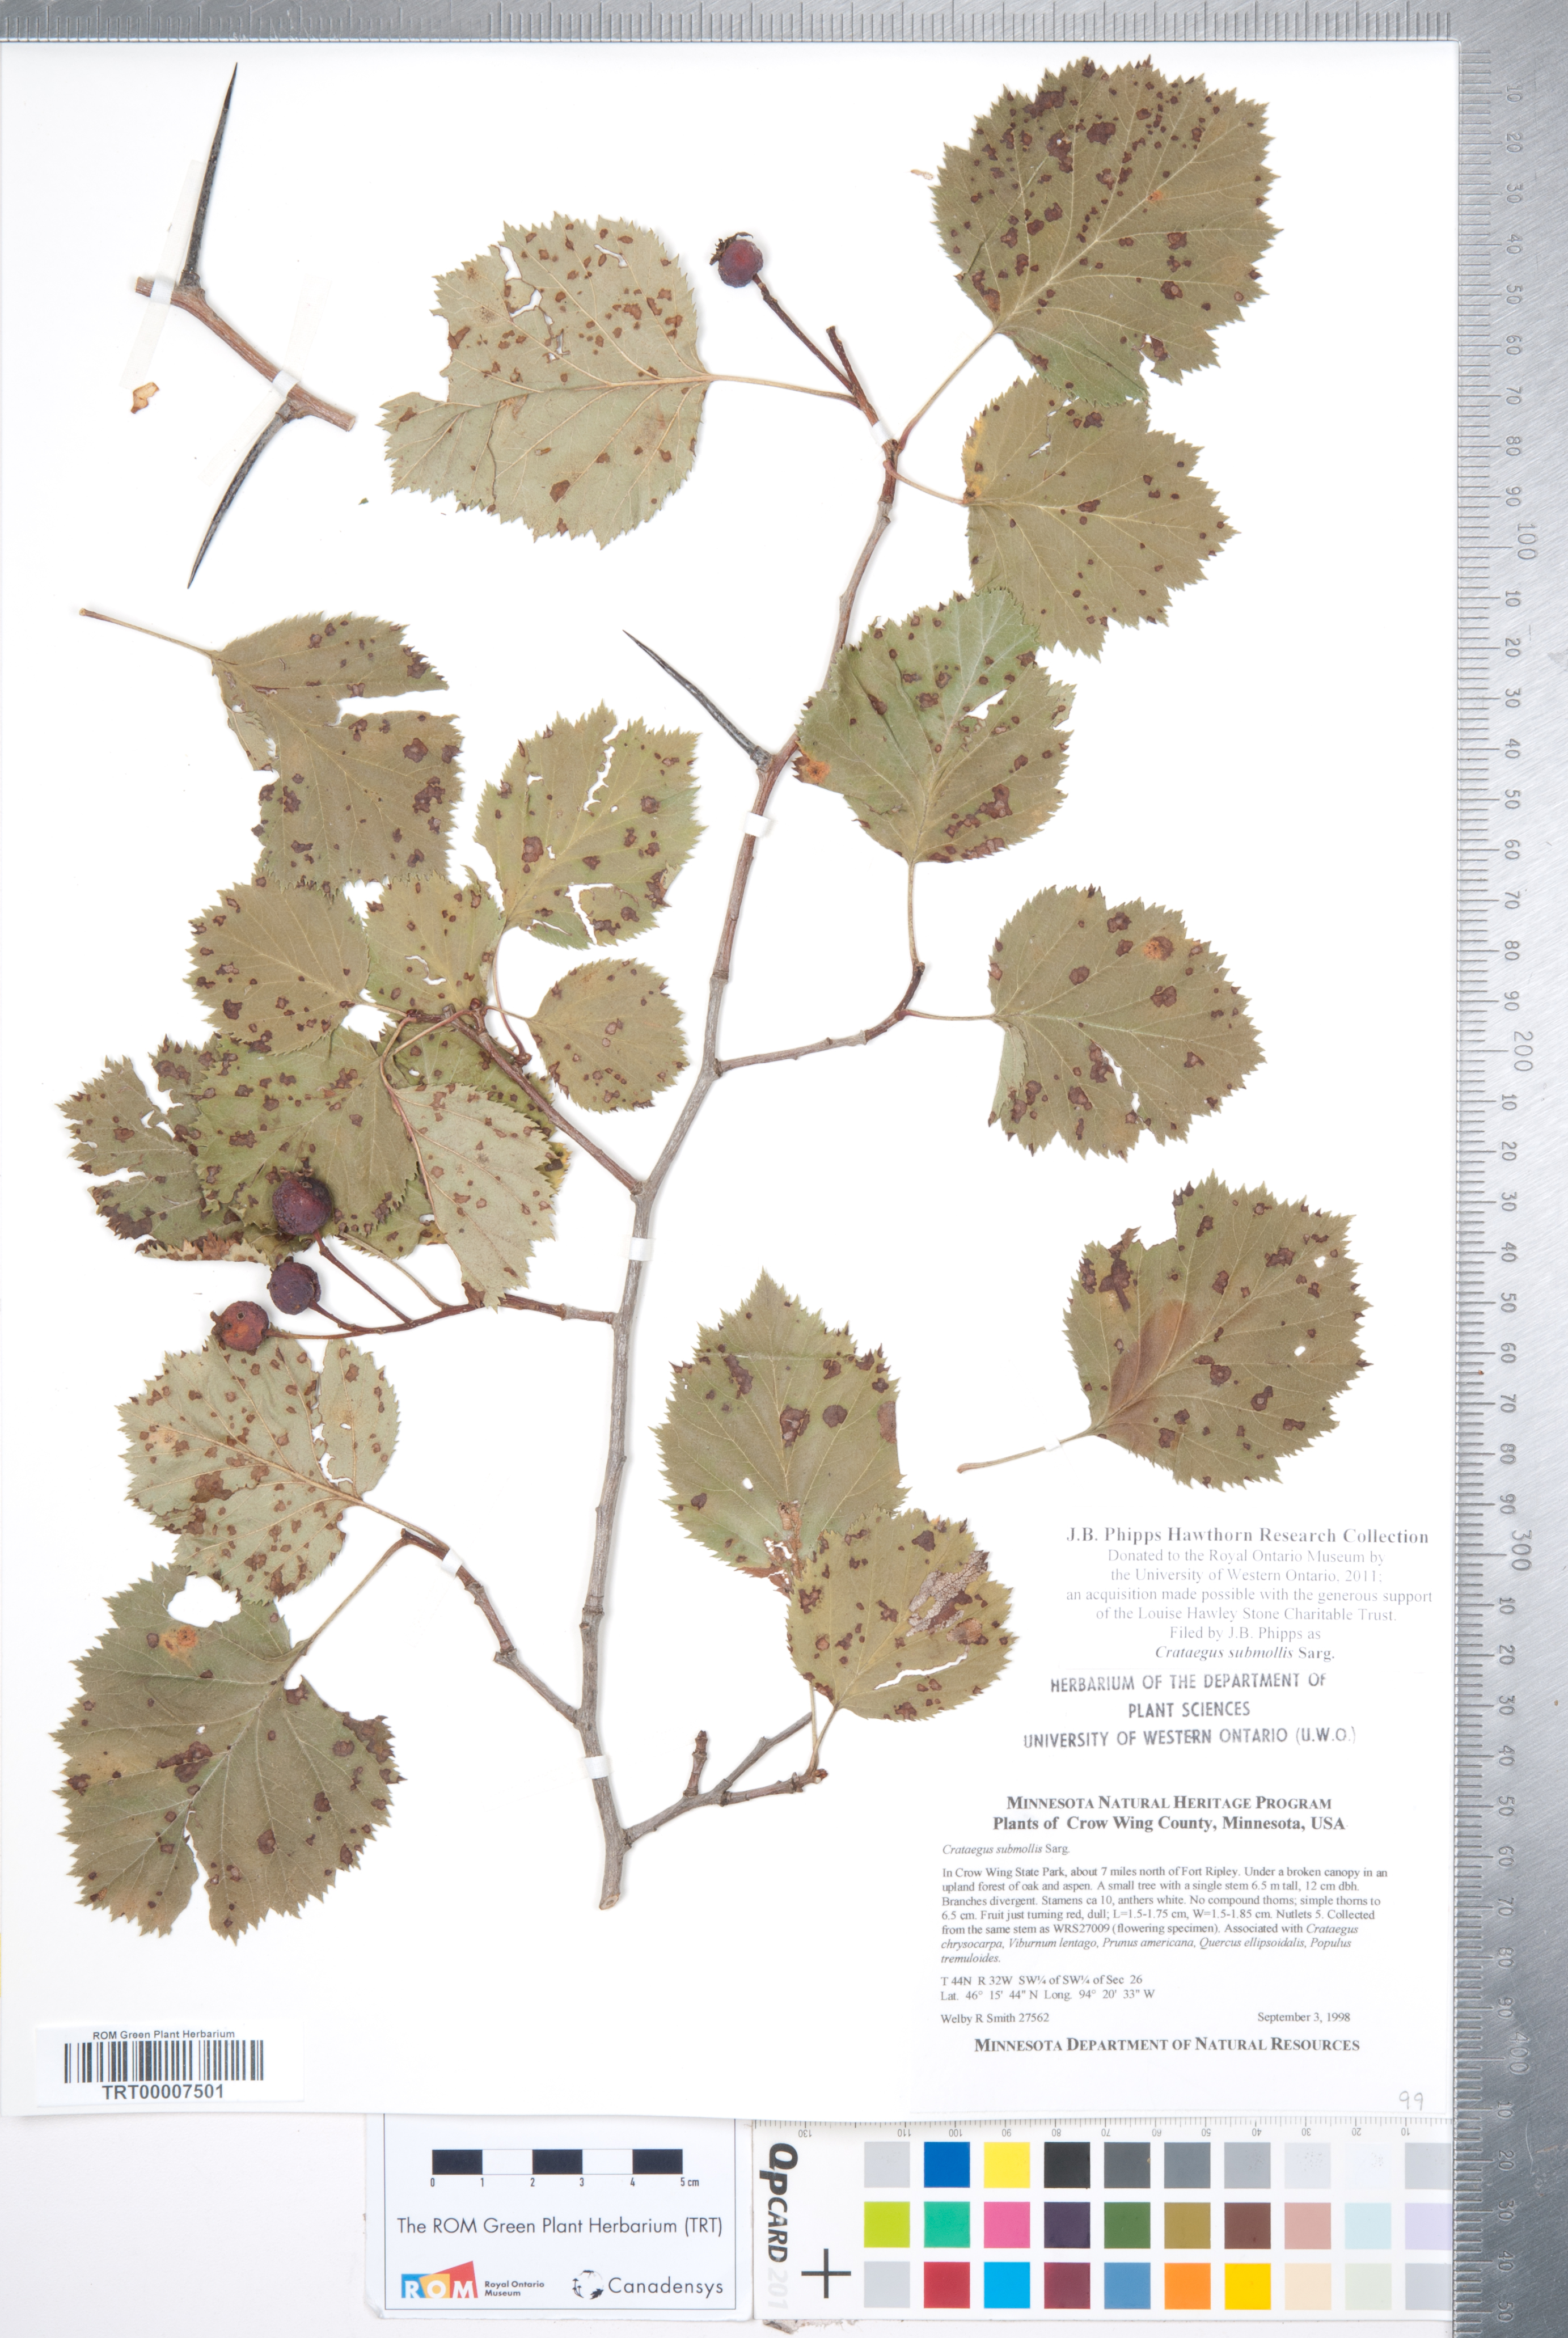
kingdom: Plantae
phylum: Tracheophyta
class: Magnoliopsida
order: Rosales
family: Rosaceae
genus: Crataegus
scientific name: Crataegus submollis
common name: Hairy cockspurthorn
